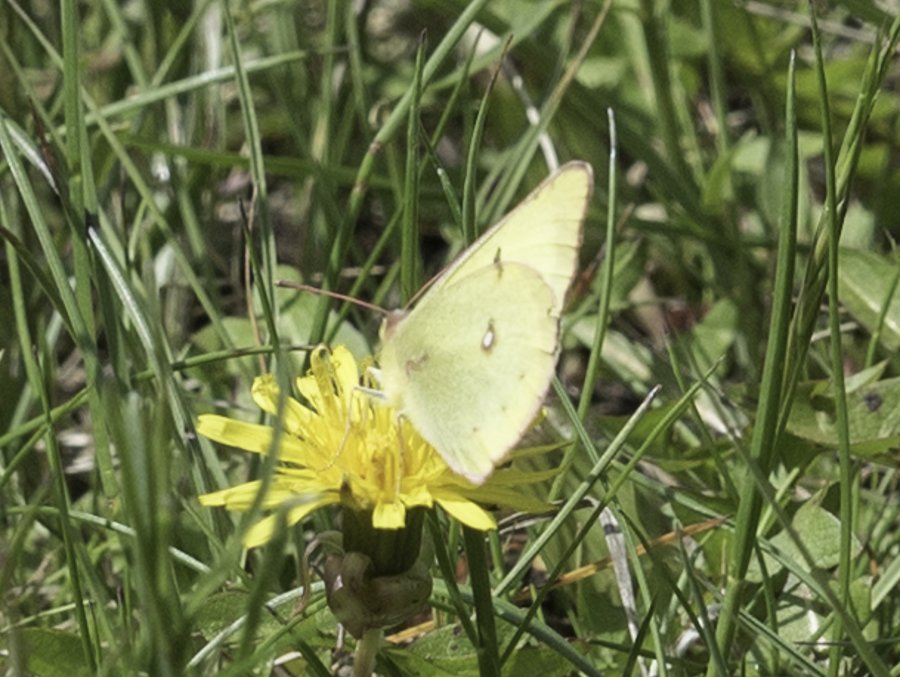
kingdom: Animalia
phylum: Arthropoda
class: Insecta
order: Lepidoptera
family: Pieridae
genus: Colias
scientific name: Colias philodice
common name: Clouded Sulphur
